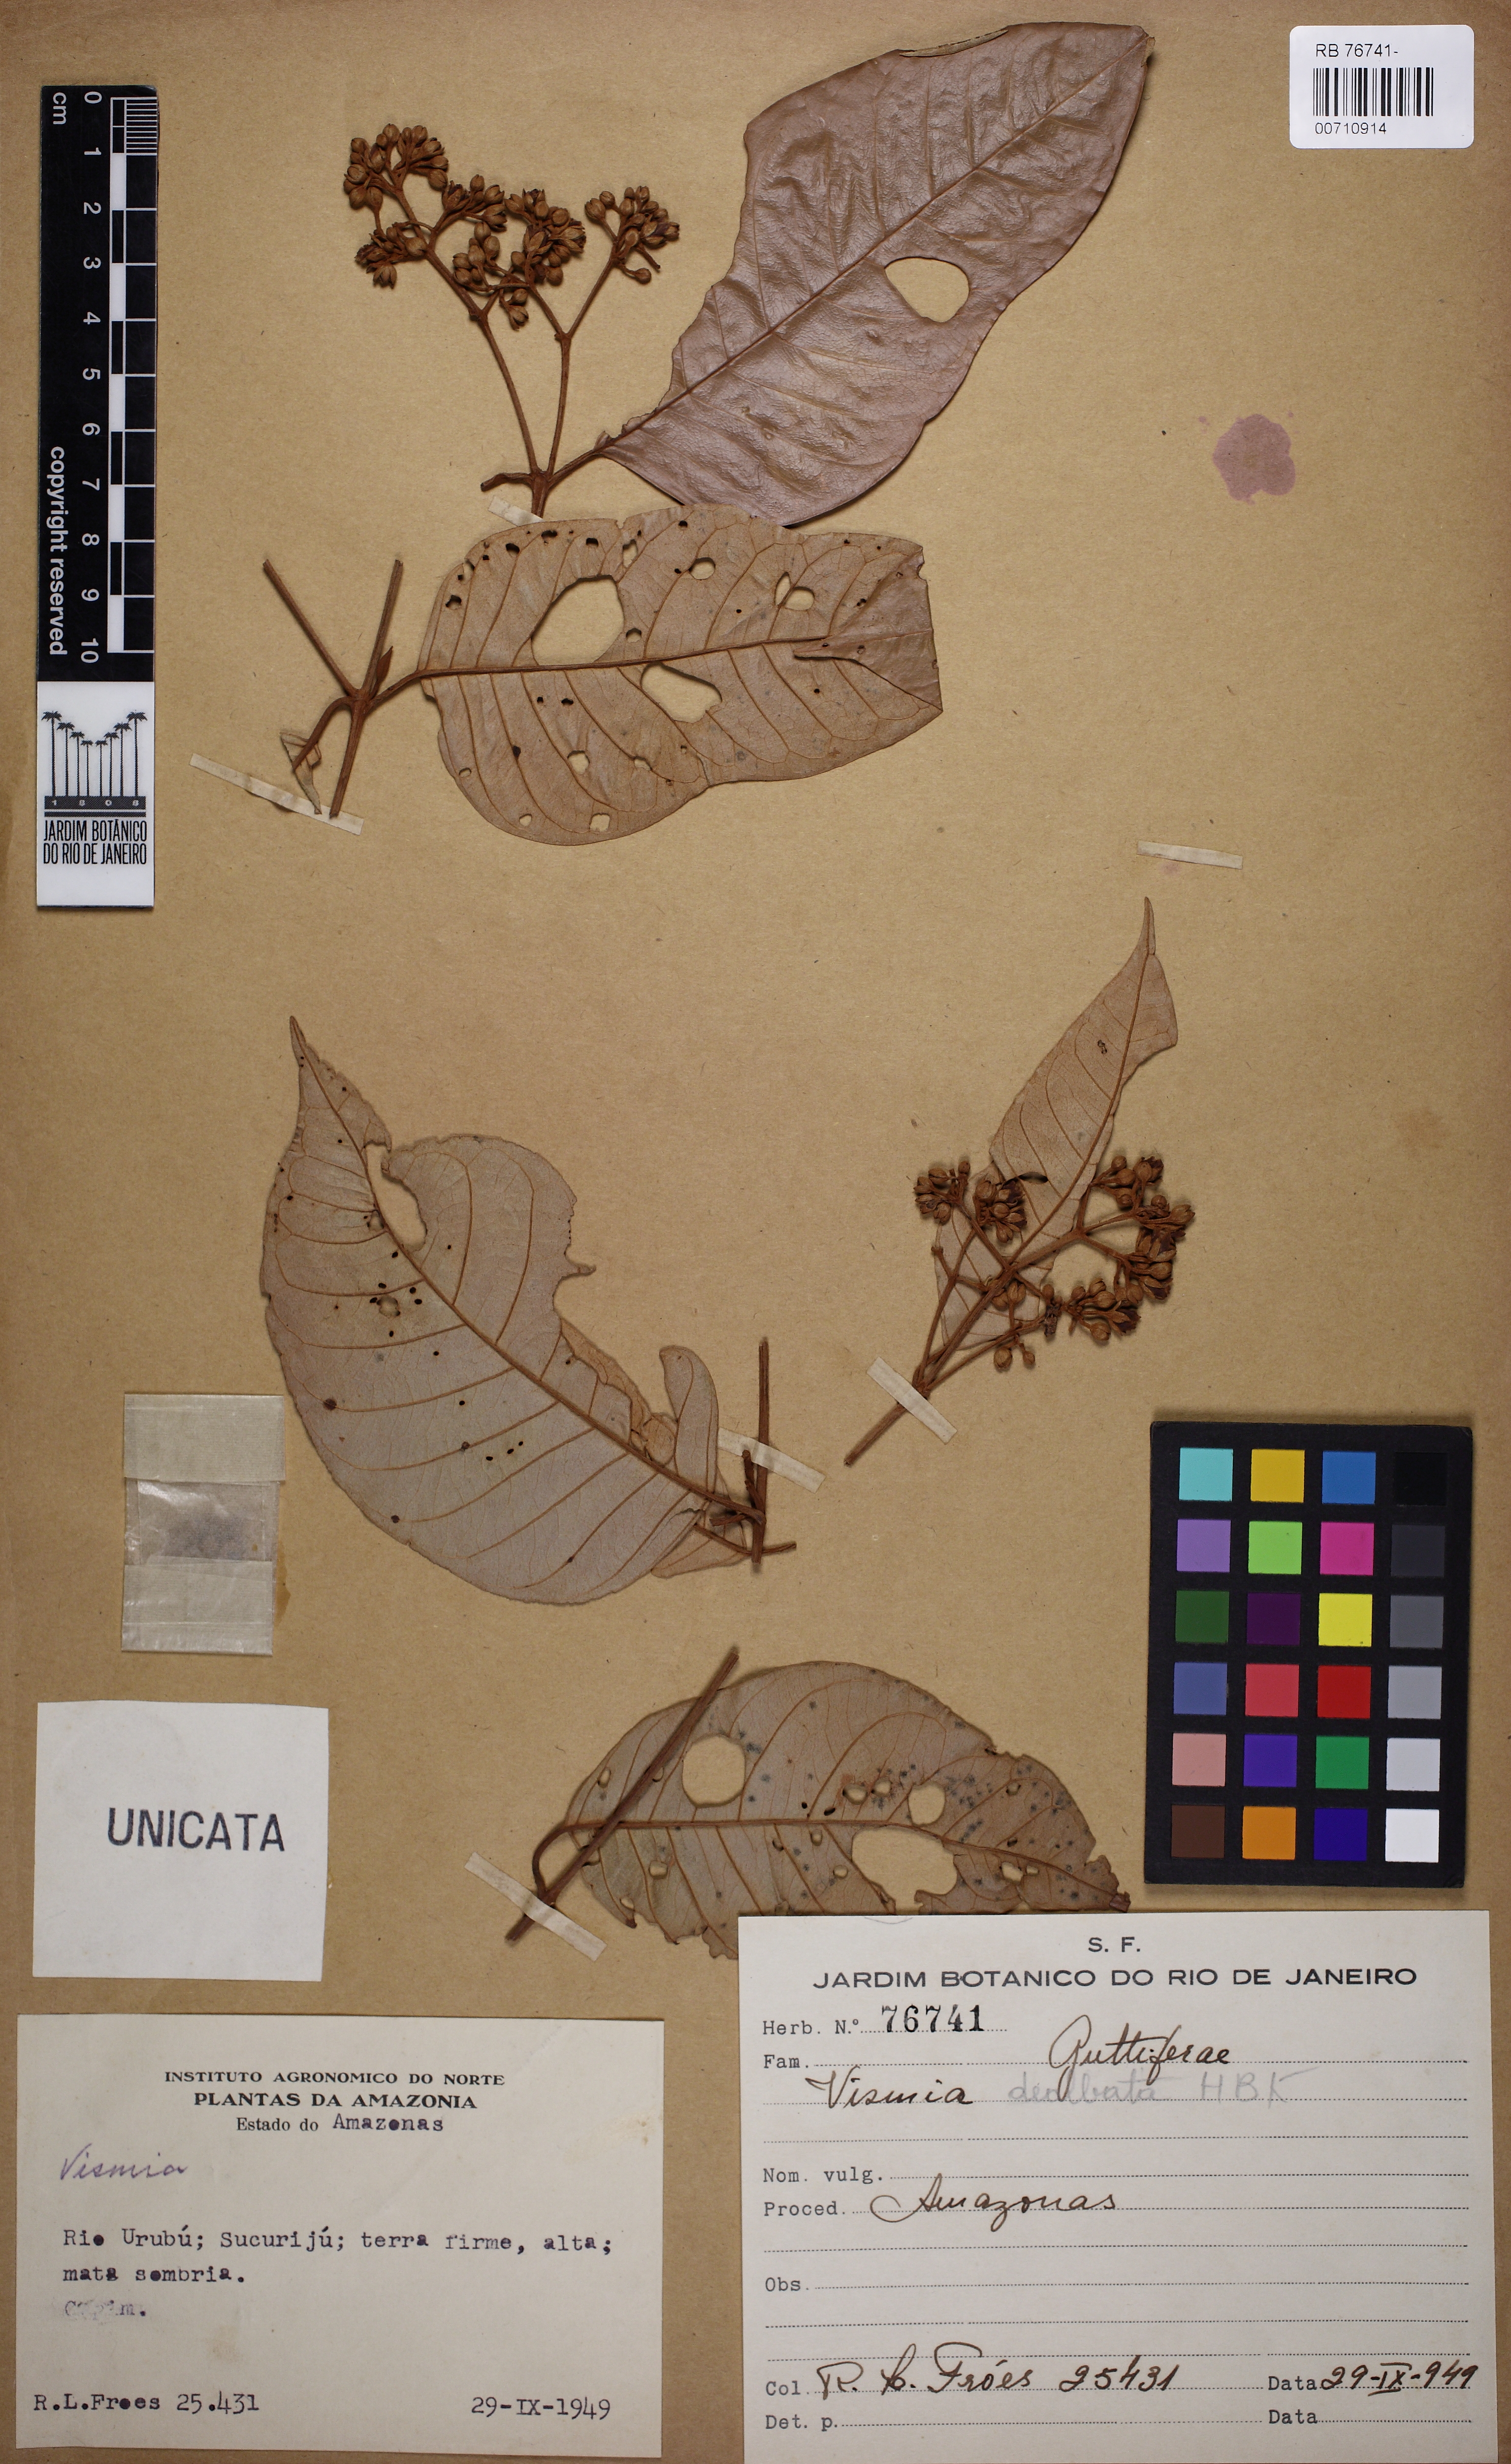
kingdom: Plantae
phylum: Tracheophyta
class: Magnoliopsida
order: Malpighiales
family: Hypericaceae
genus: Vismia
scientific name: Vismia gracilis
